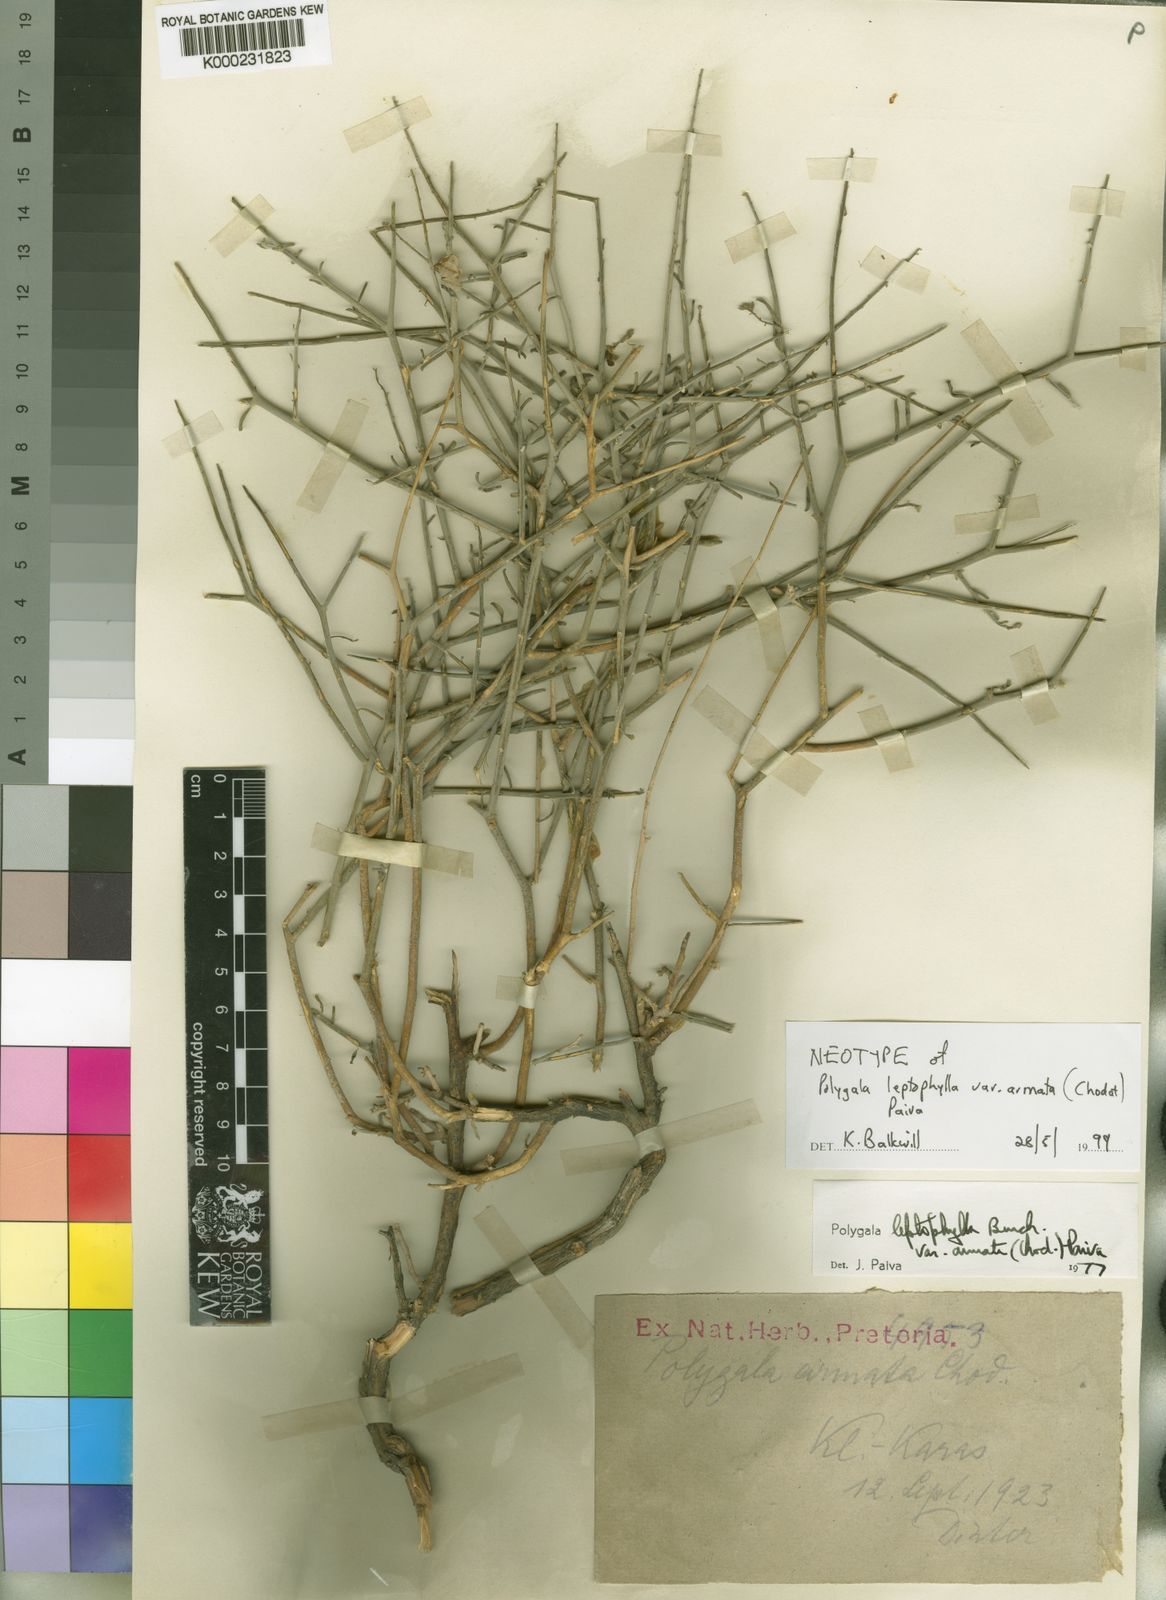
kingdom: Plantae
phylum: Tracheophyta
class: Magnoliopsida
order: Fabales
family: Polygalaceae
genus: Polygala
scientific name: Polygala leptophylla
